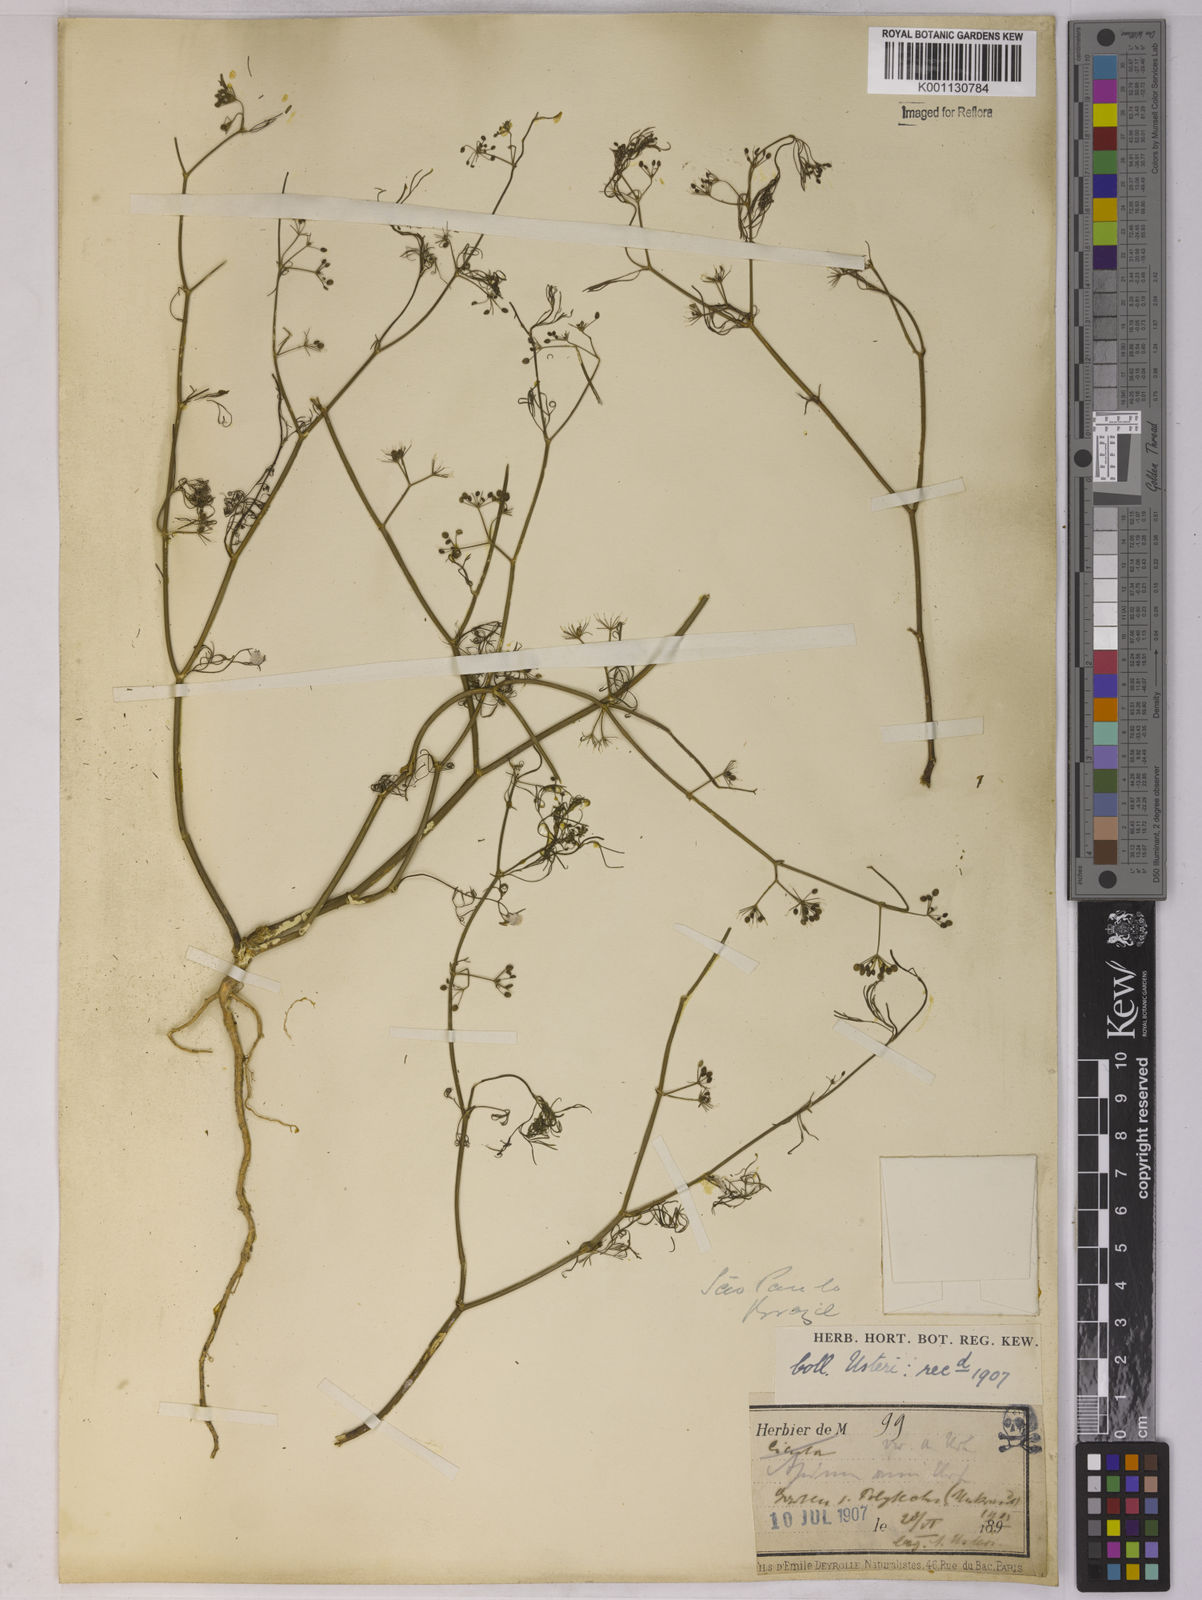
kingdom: Plantae
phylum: Tracheophyta
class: Magnoliopsida
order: Apiales
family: Apiaceae
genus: Apium
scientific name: Apium
